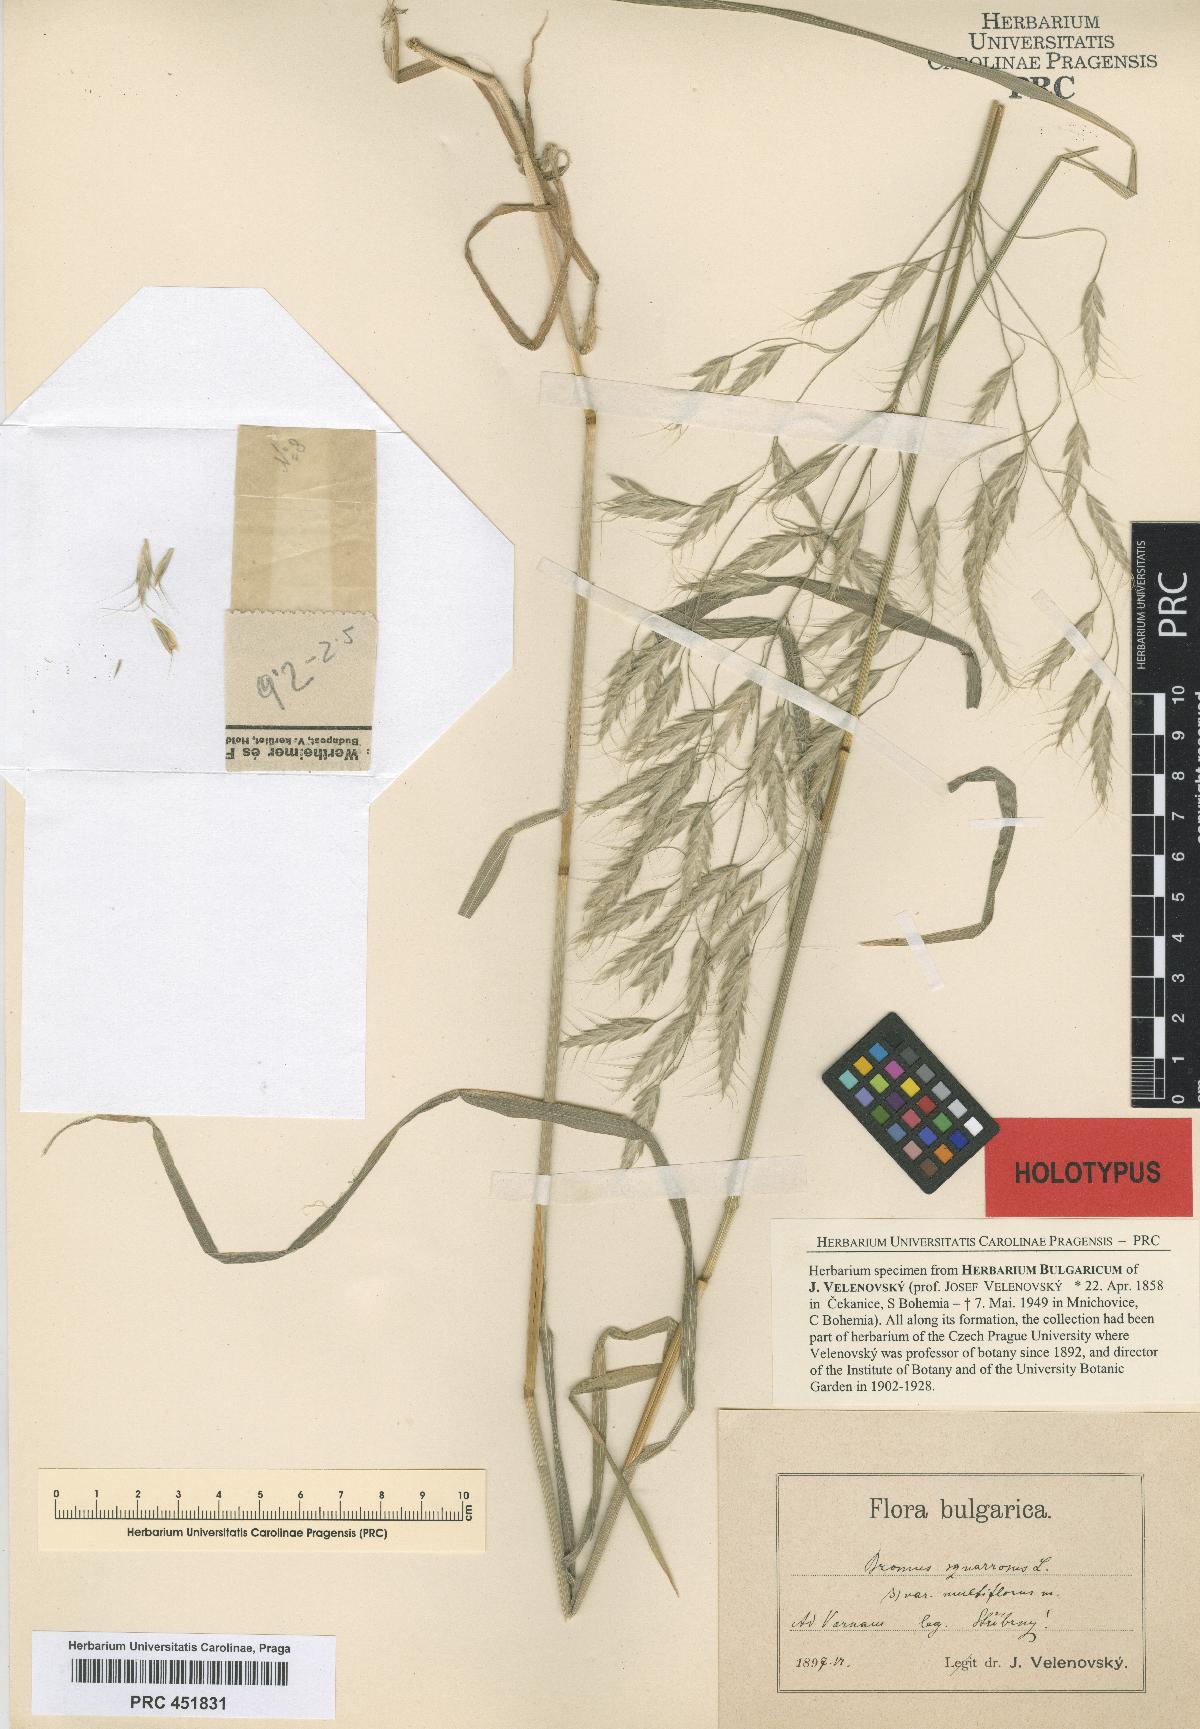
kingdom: Plantae
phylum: Tracheophyta
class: Liliopsida
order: Poales
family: Poaceae
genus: Bromus
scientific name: Bromus squarrosus
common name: Corn brome
